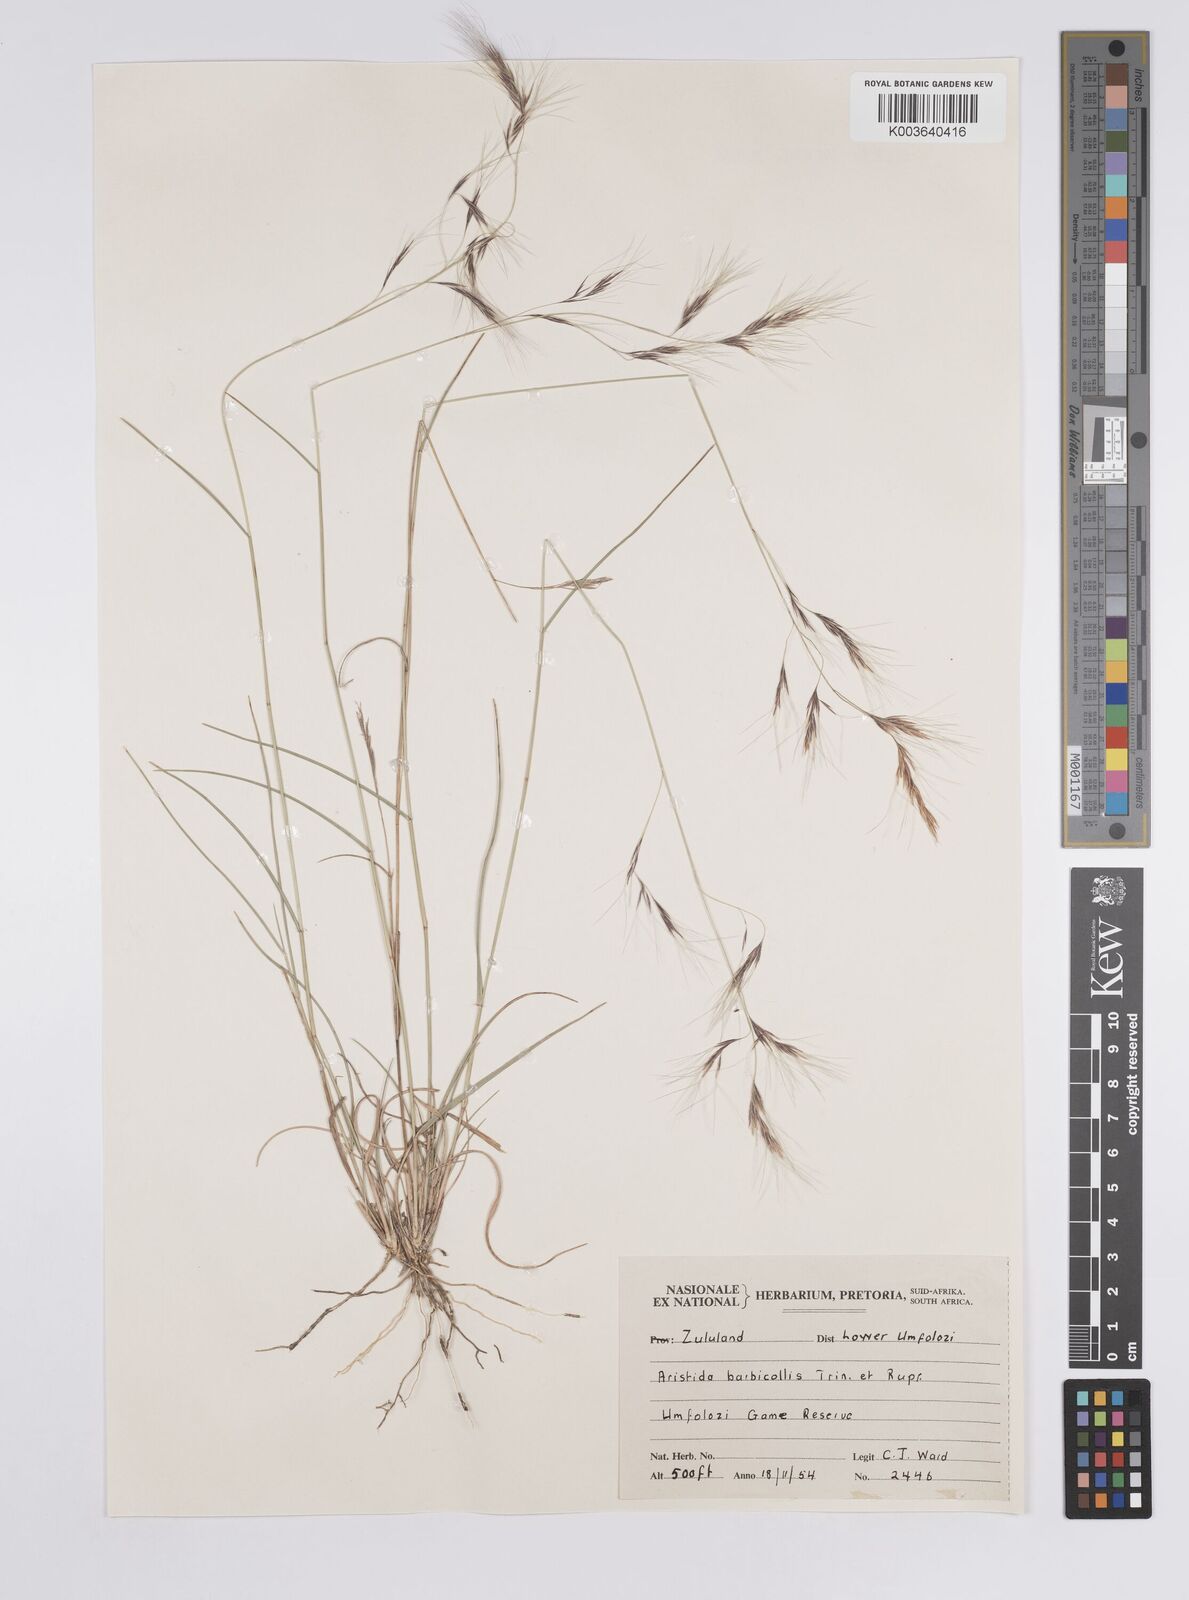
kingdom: Plantae
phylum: Tracheophyta
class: Liliopsida
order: Poales
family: Poaceae
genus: Aristida
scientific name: Aristida barbicollis
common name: Spreading prickle grass
